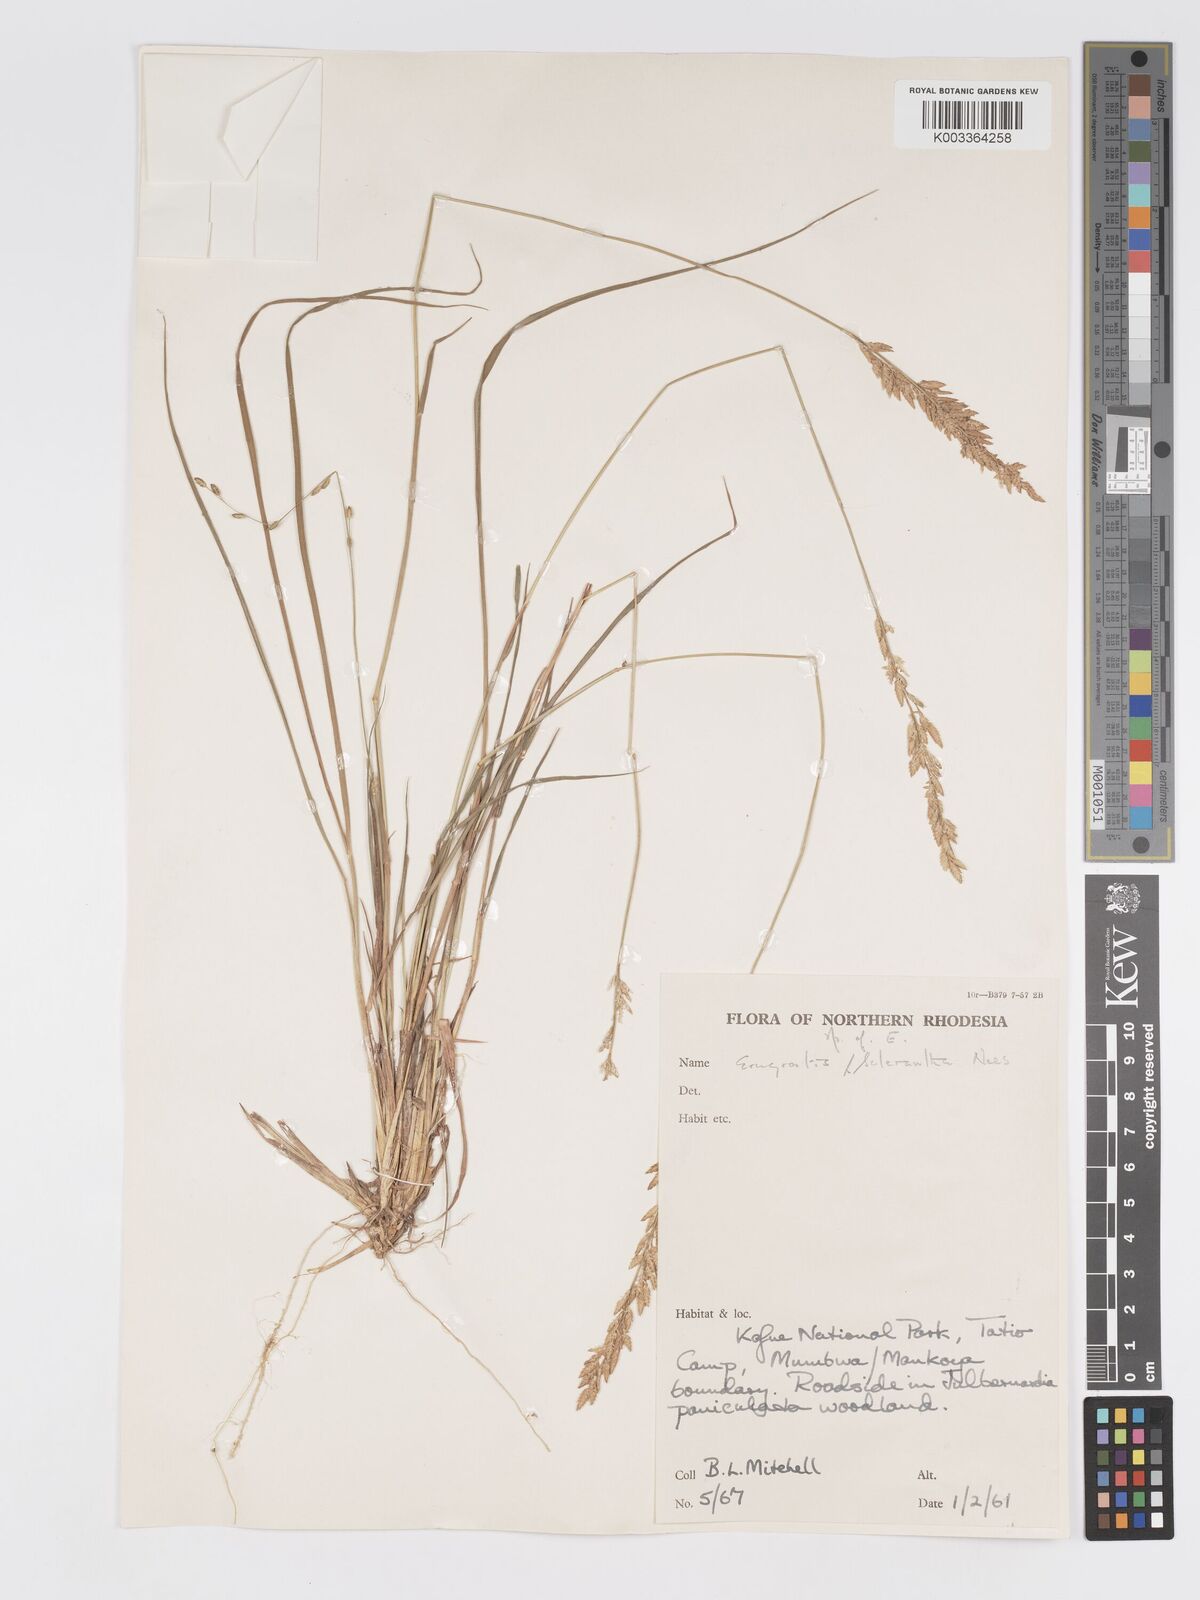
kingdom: Plantae
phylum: Tracheophyta
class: Liliopsida
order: Poales
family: Poaceae
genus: Eragrostis
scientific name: Eragrostis racemosa
